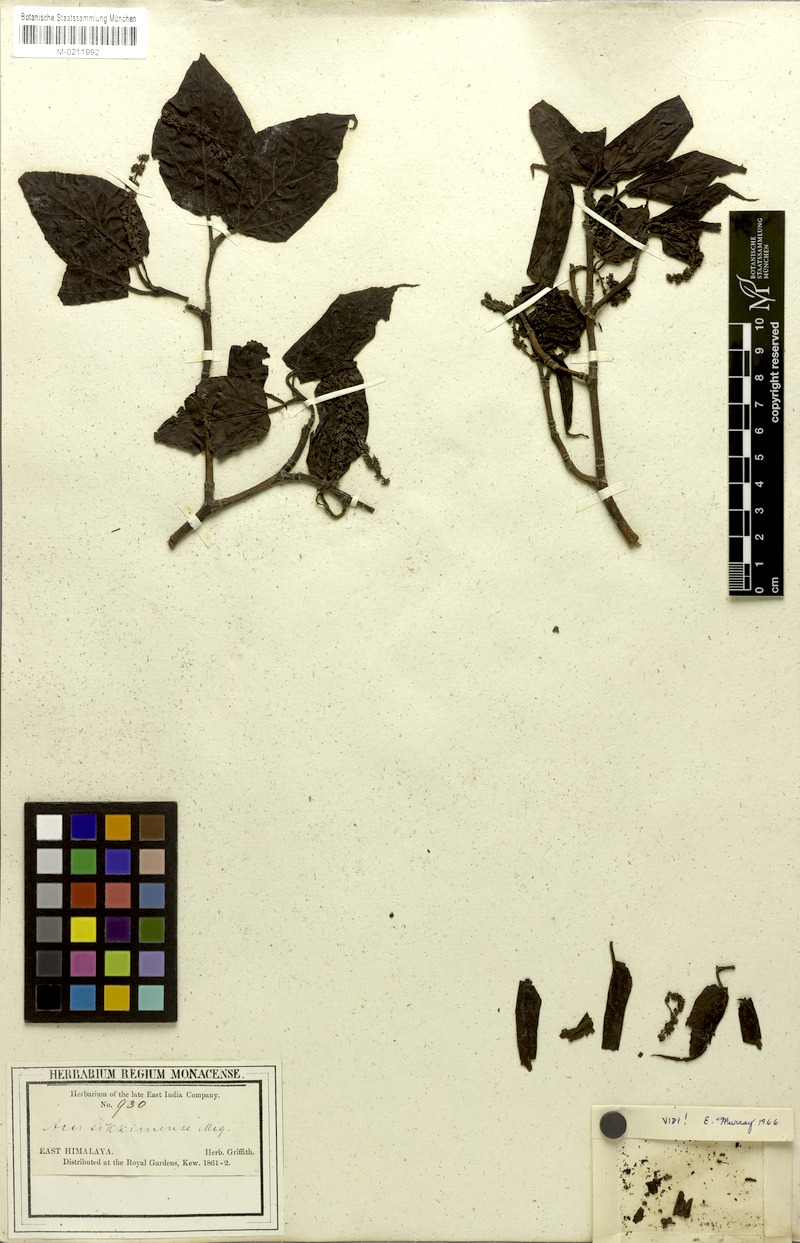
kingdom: Plantae
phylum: Tracheophyta
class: Magnoliopsida
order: Sapindales
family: Sapindaceae
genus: Acer
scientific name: Acer sikkimense
